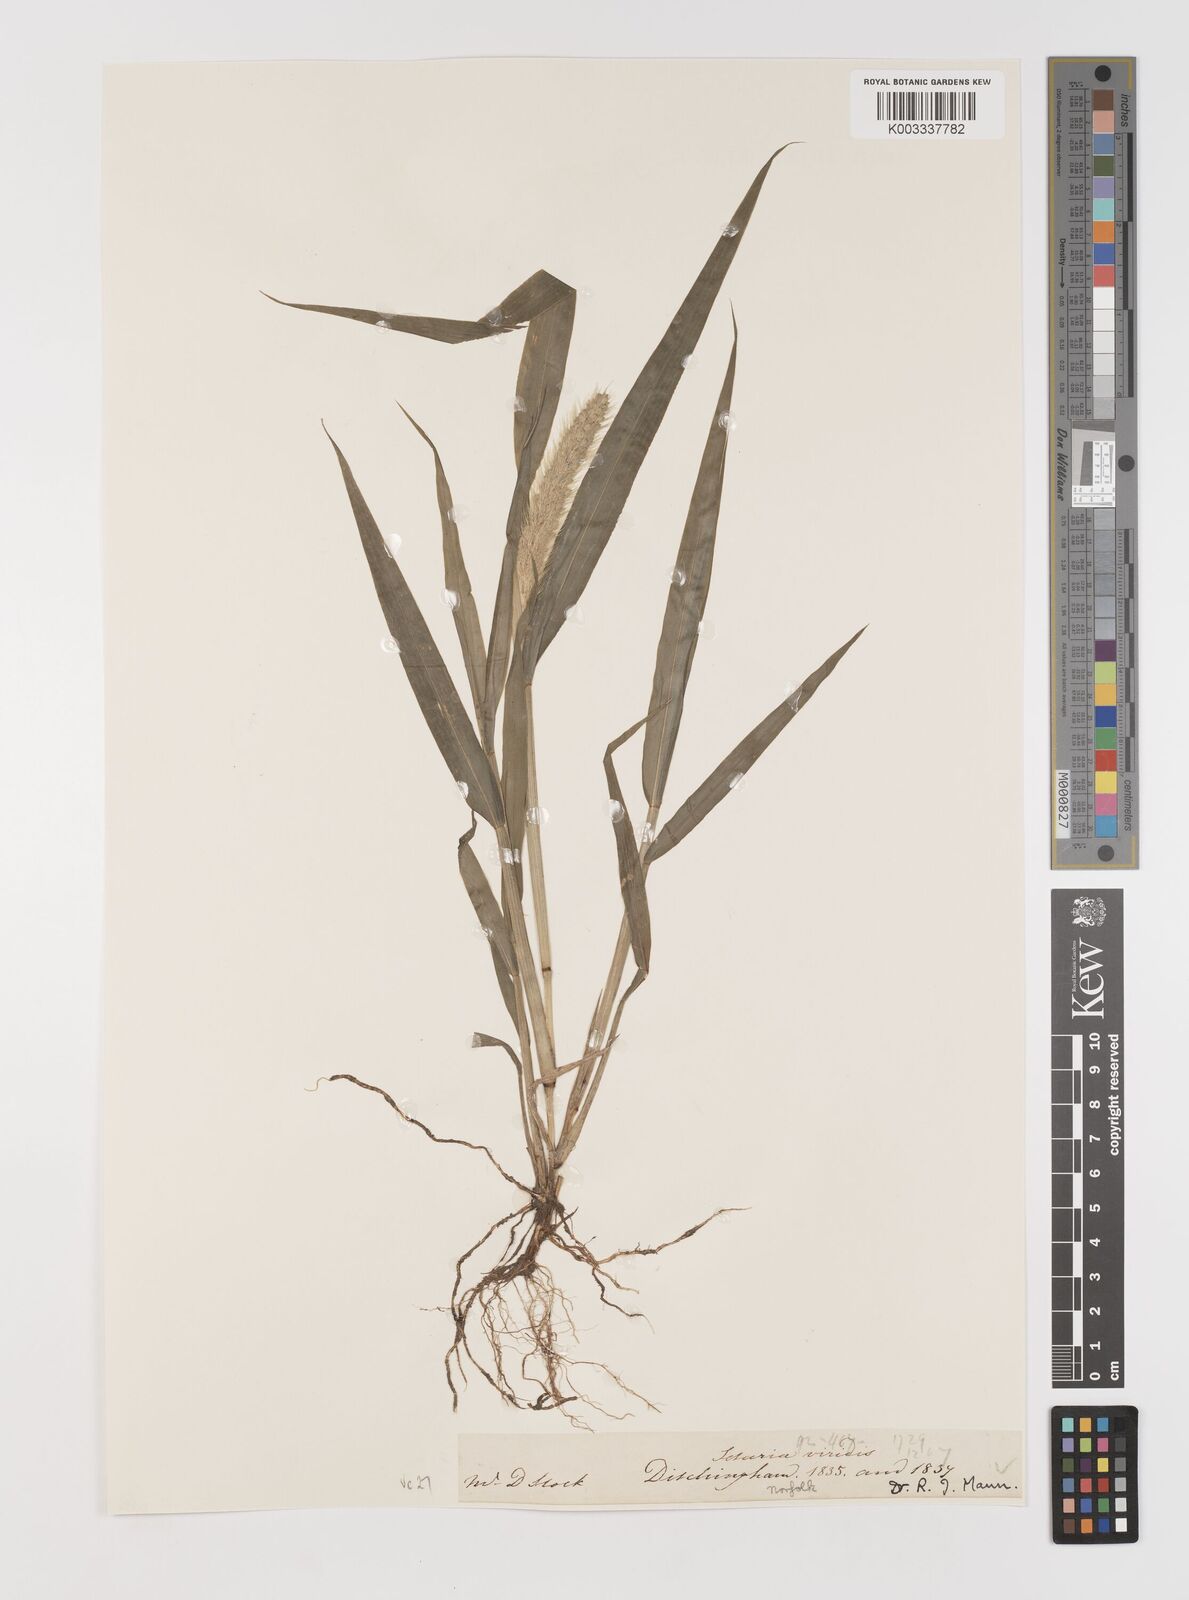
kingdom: Plantae
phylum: Tracheophyta
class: Liliopsida
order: Poales
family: Poaceae
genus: Setaria
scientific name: Setaria viridis
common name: Green bristlegrass
